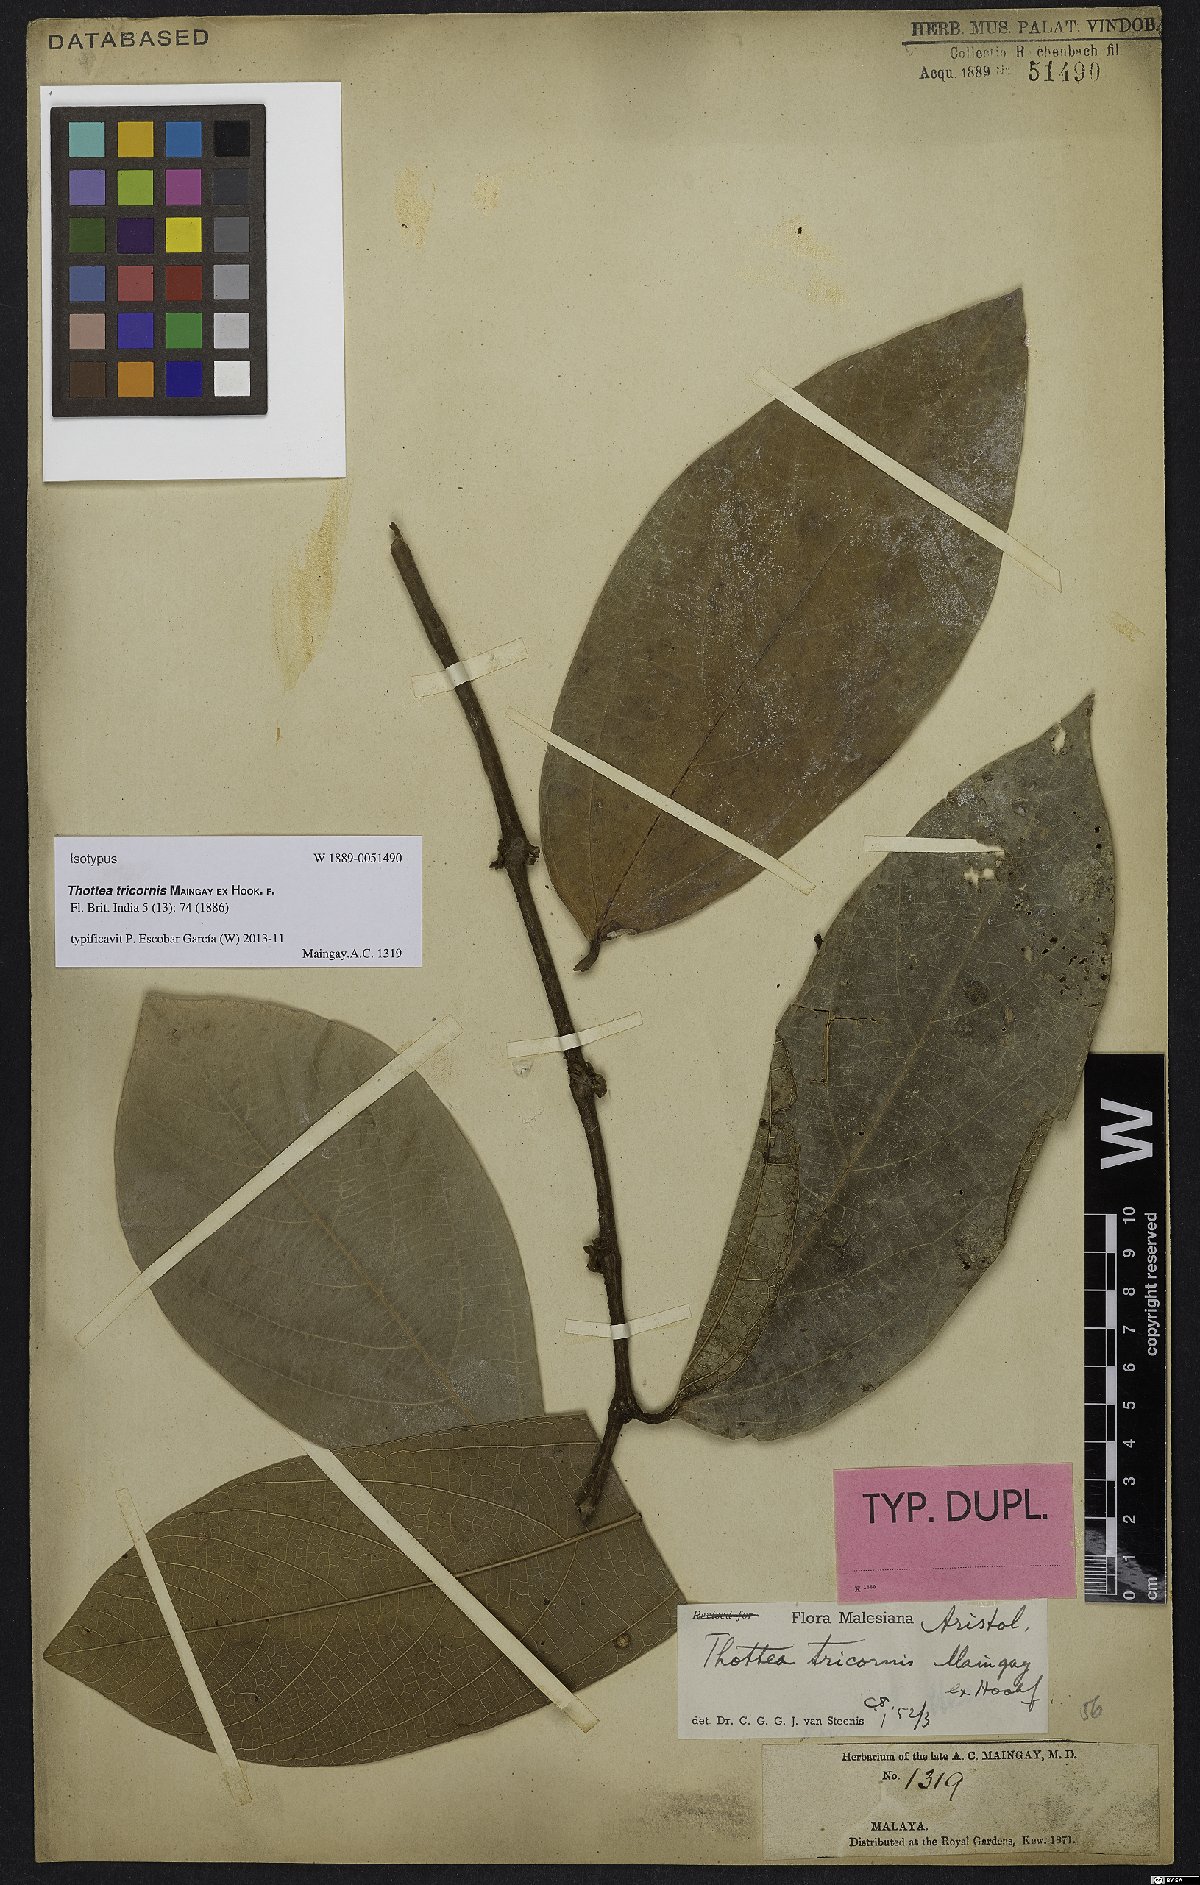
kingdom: Plantae
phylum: Tracheophyta
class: Magnoliopsida
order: Piperales
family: Aristolochiaceae
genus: Thottea
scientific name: Thottea tricornis
